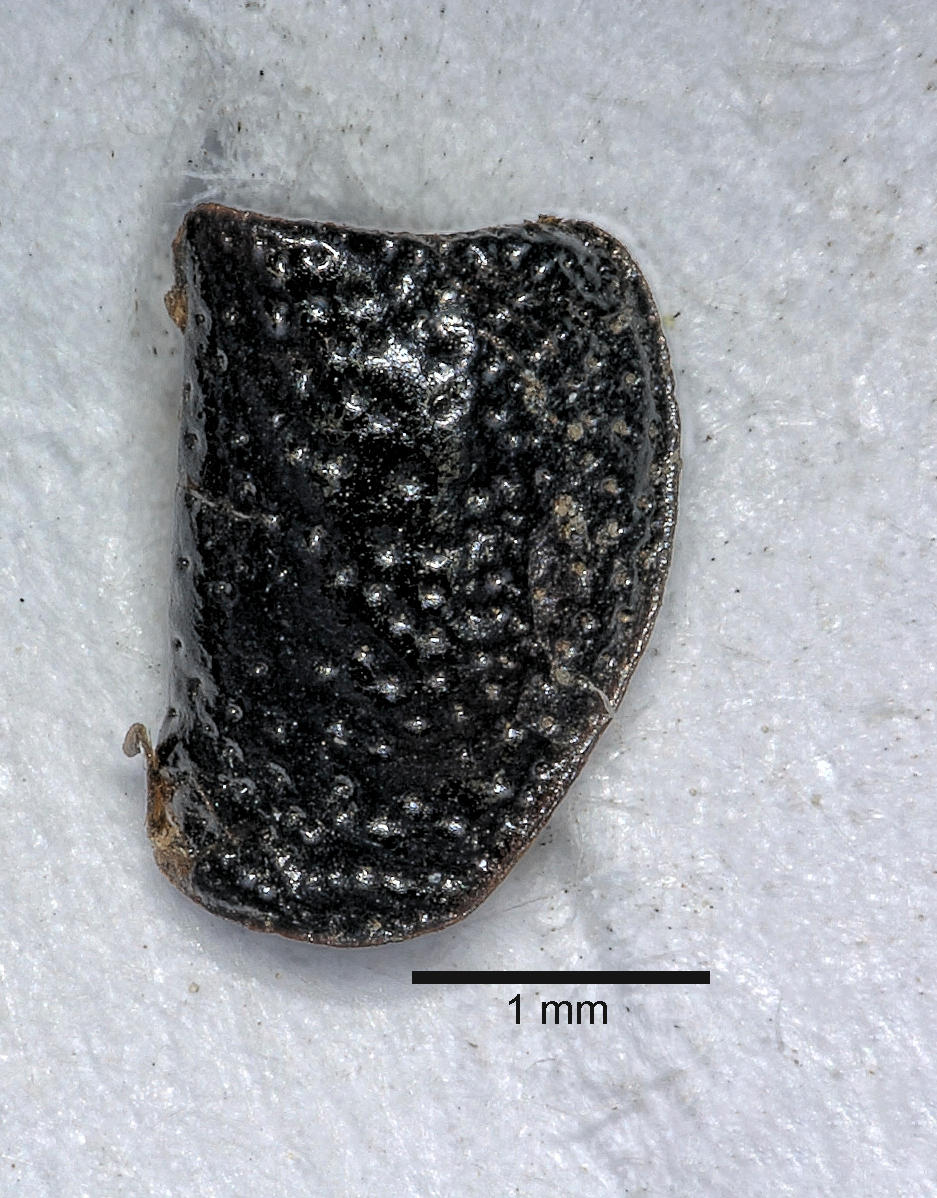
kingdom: Animalia
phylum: Arthropoda
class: Insecta
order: Coleoptera
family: Carabidae
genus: Dicheirus
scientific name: Dicheirus dilatatus
